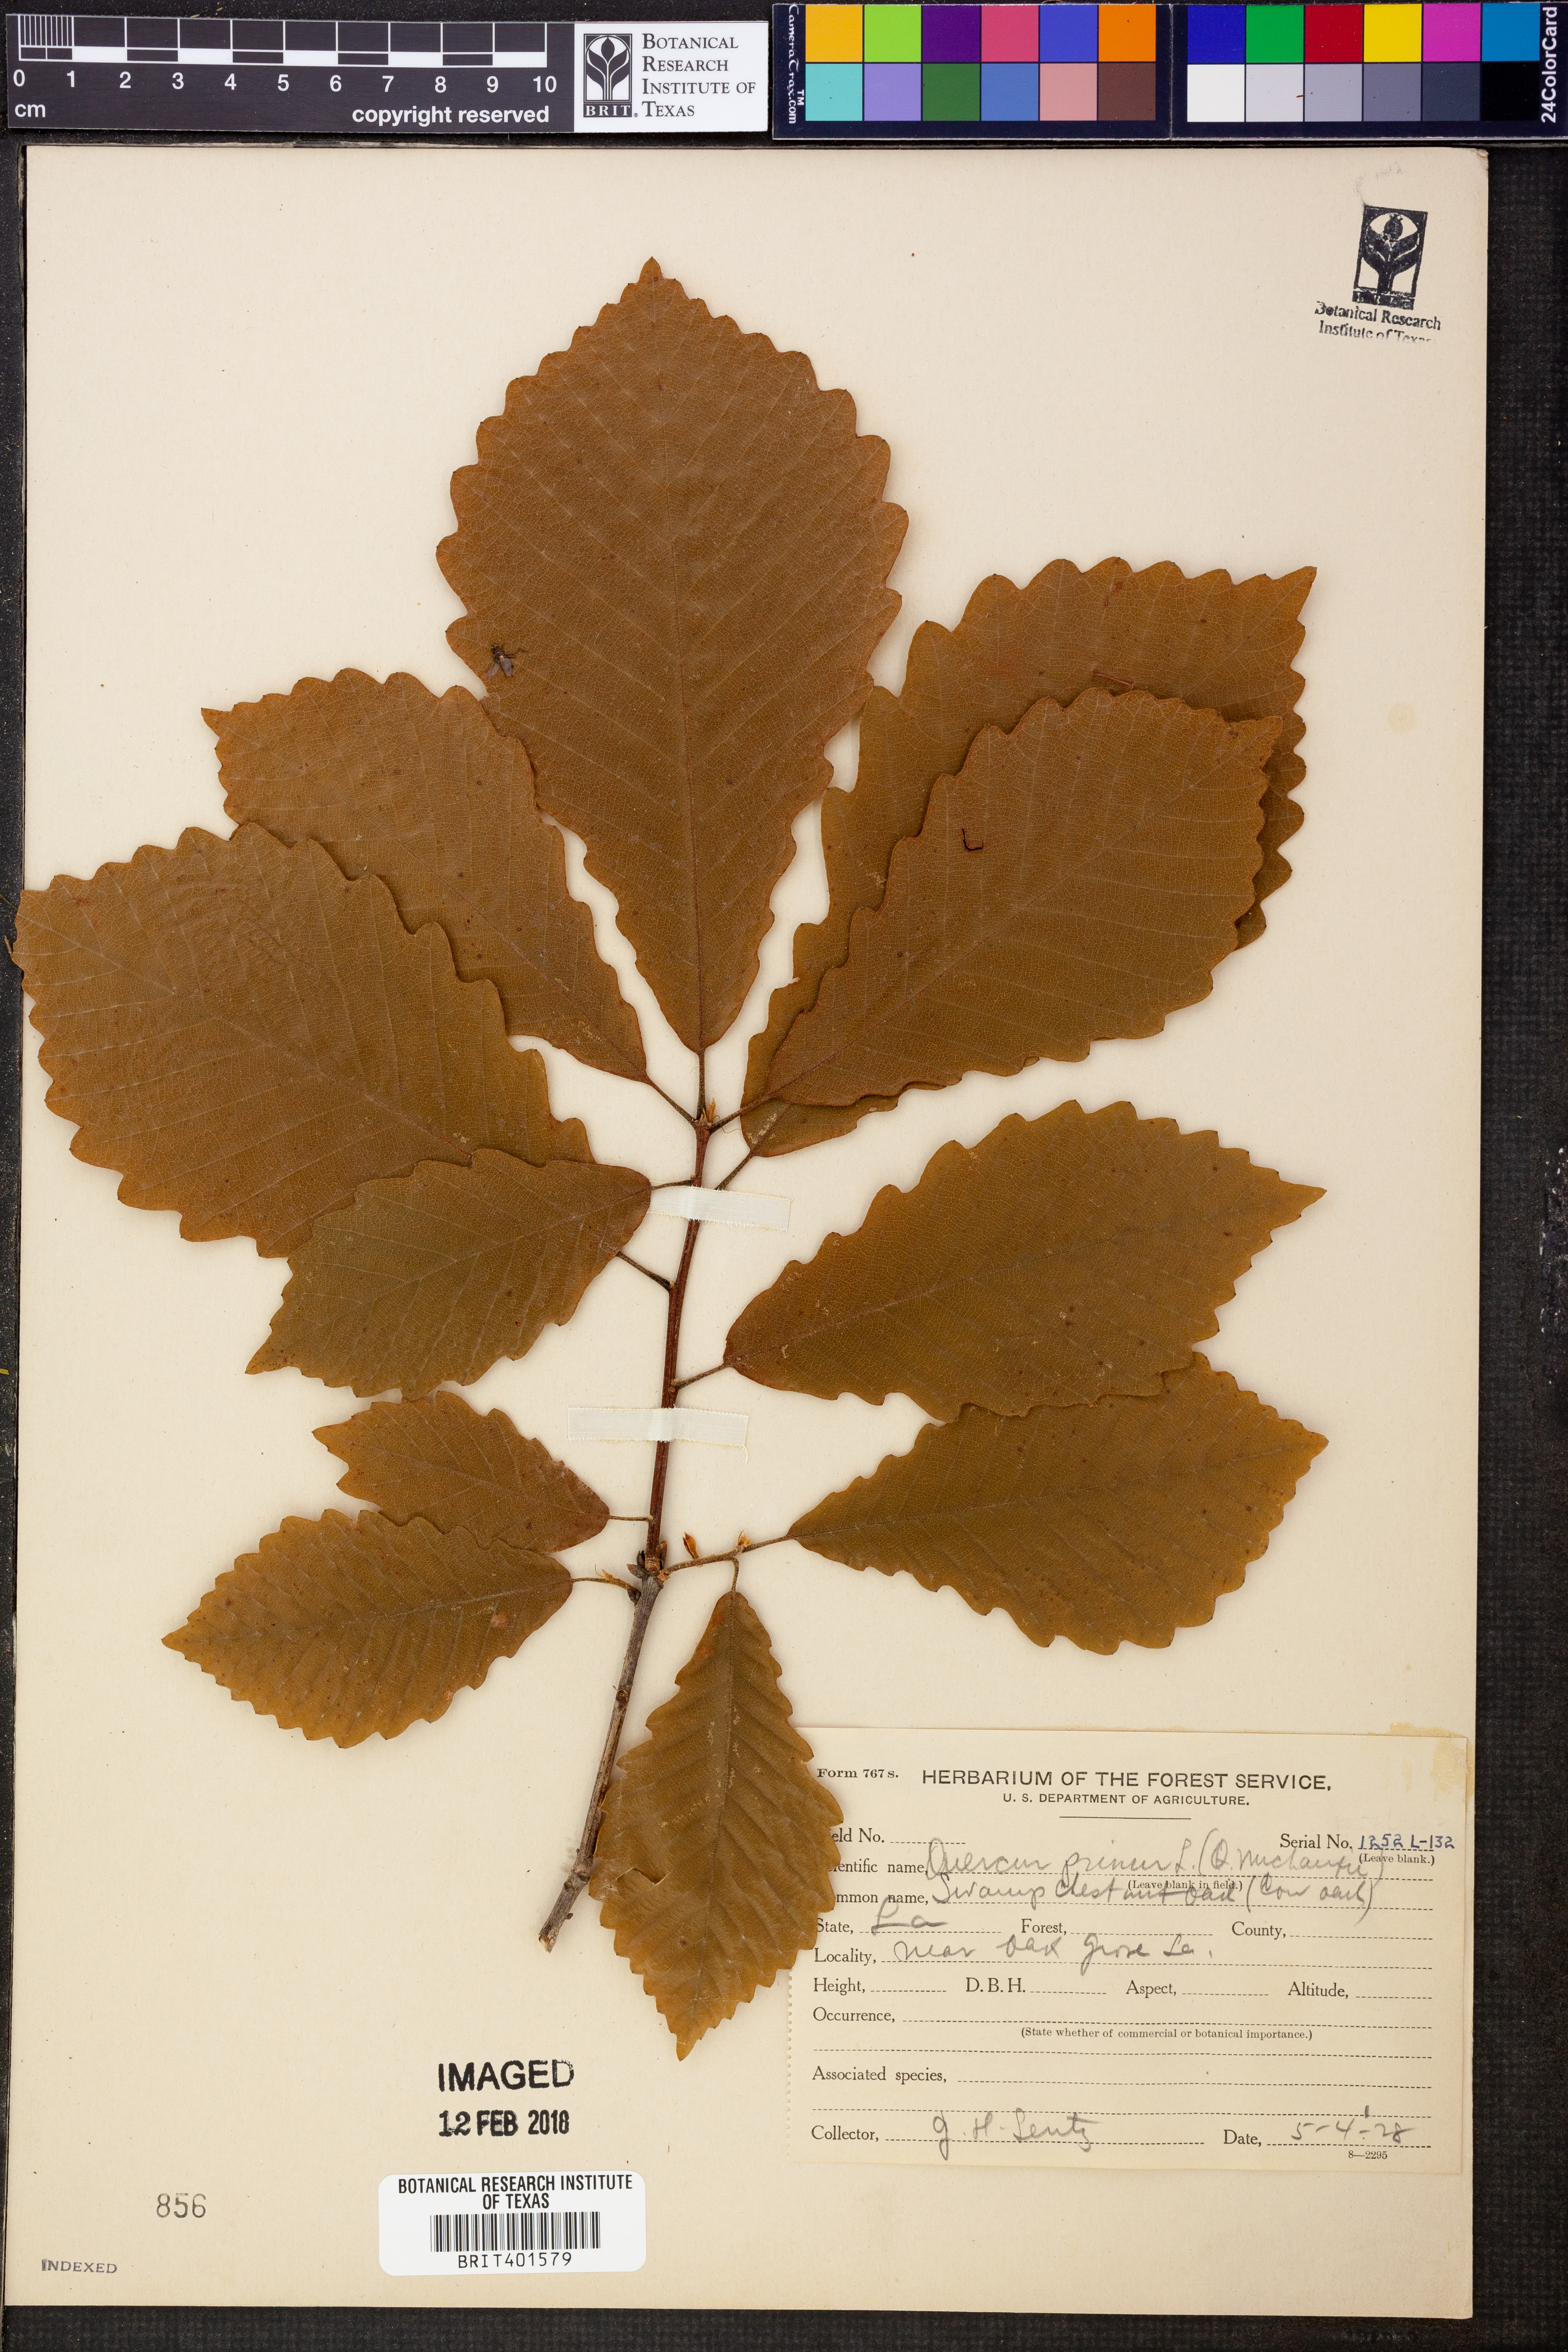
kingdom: Plantae
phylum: Tracheophyta
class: Magnoliopsida
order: Fagales
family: Fagaceae
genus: Quercus
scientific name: Quercus michauxii
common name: Swamp chestnut oak
